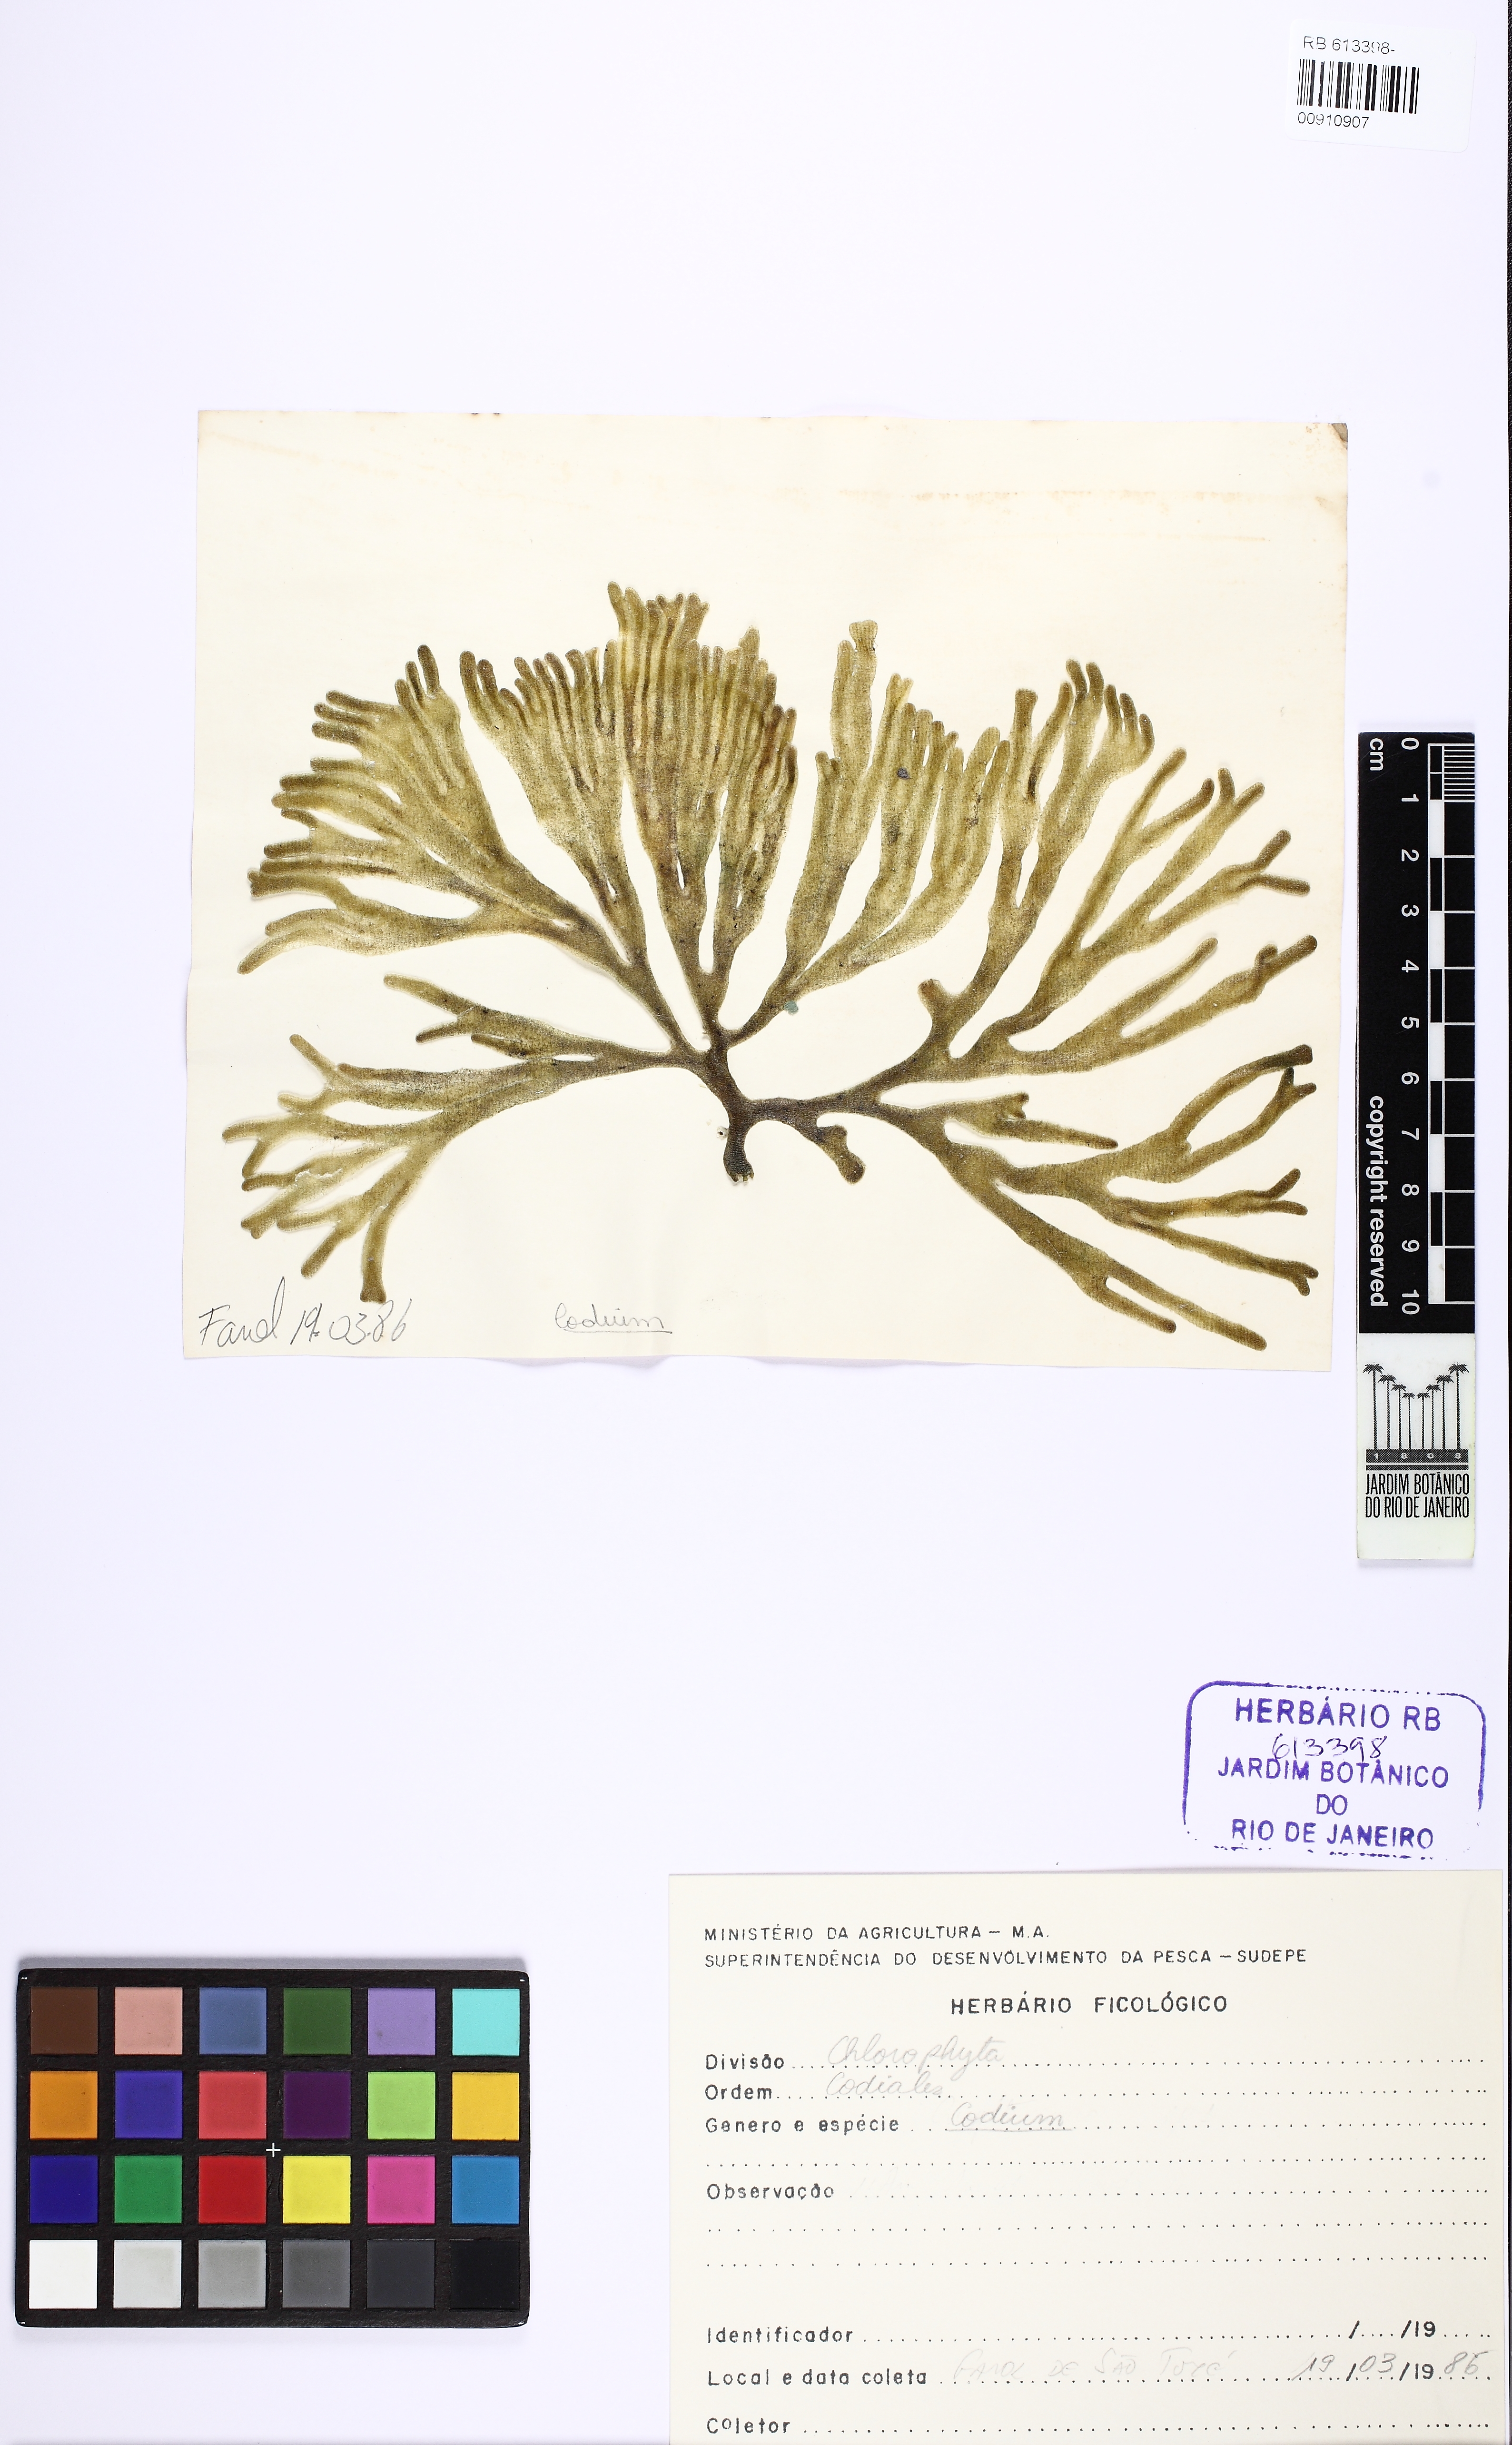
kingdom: Plantae
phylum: Chlorophyta
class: Ulvophyceae
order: Bryopsidales
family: Codiaceae
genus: Codium
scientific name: Codium
